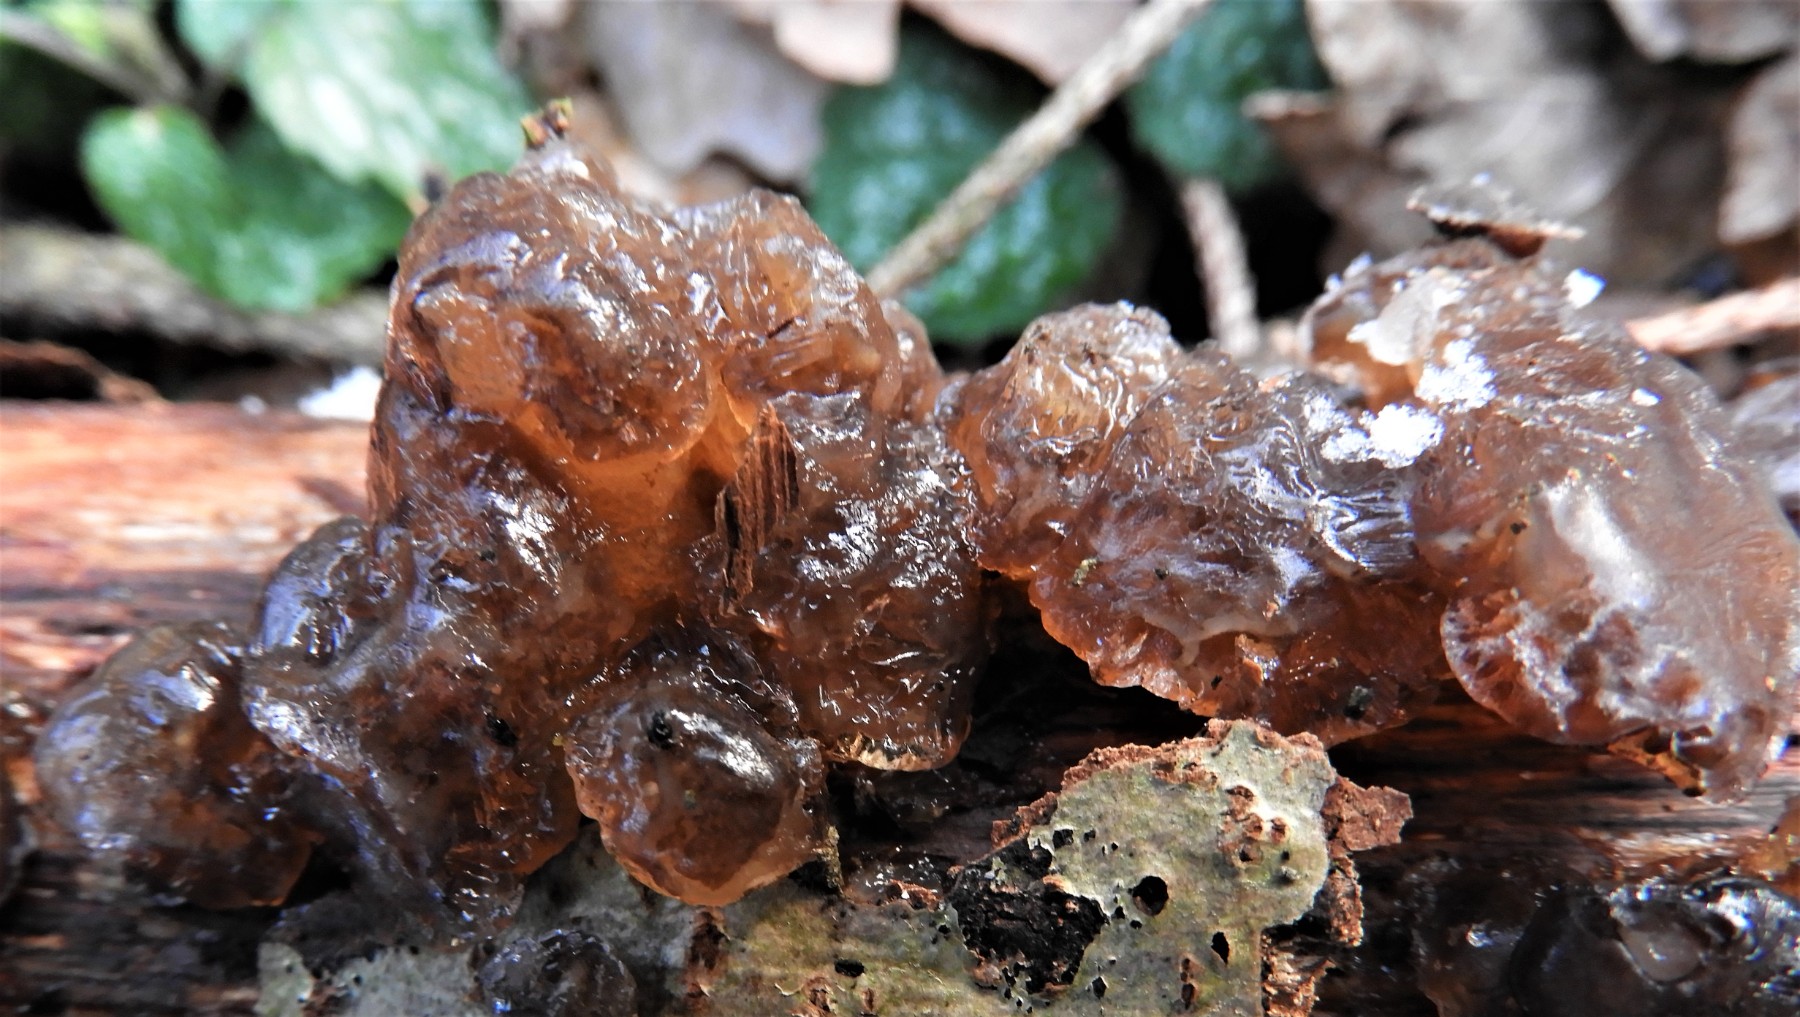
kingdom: Fungi
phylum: Basidiomycota
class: Tremellomycetes
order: Tremellales
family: Exidiaceae
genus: Exidia
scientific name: Exidia
